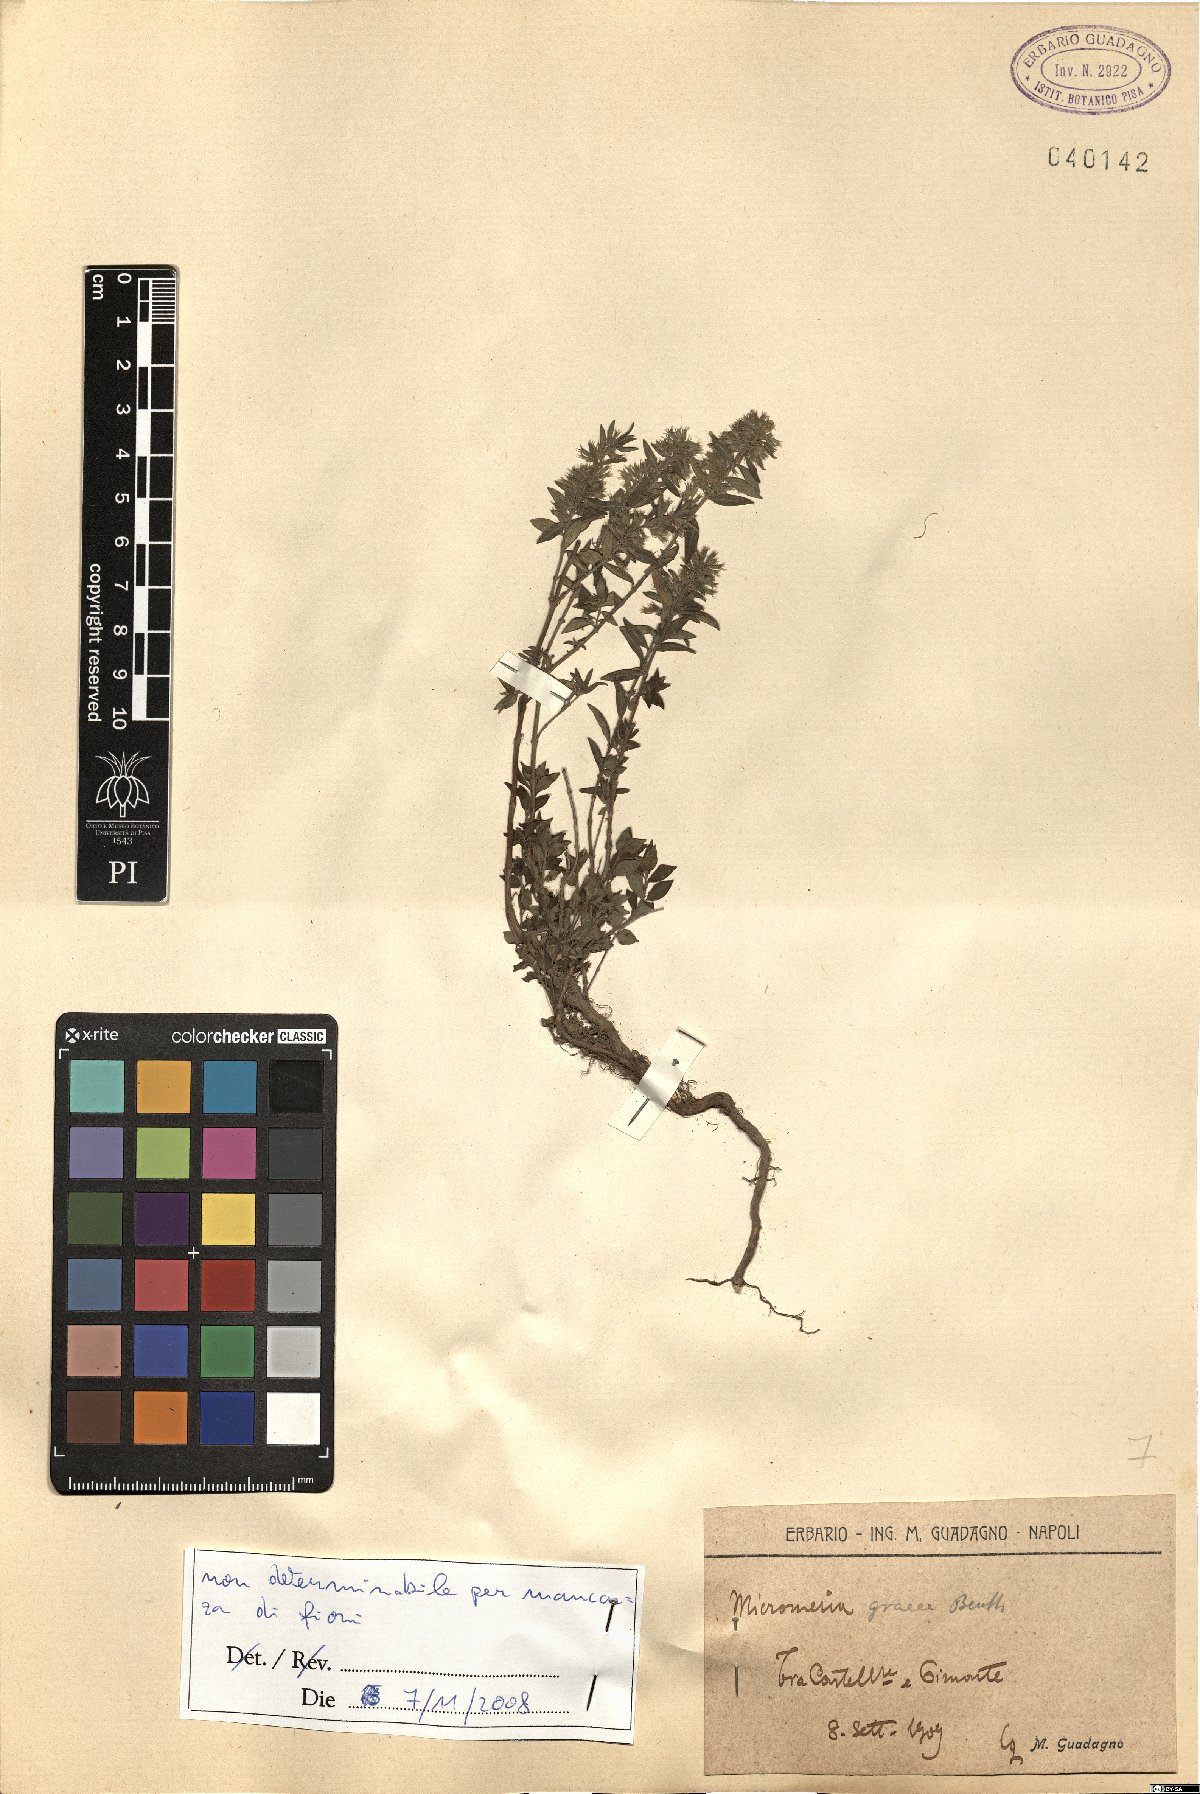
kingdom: Plantae
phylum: Tracheophyta
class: Magnoliopsida
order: Lamiales
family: Lamiaceae
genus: Micromeria
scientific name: Micromeria graeca
